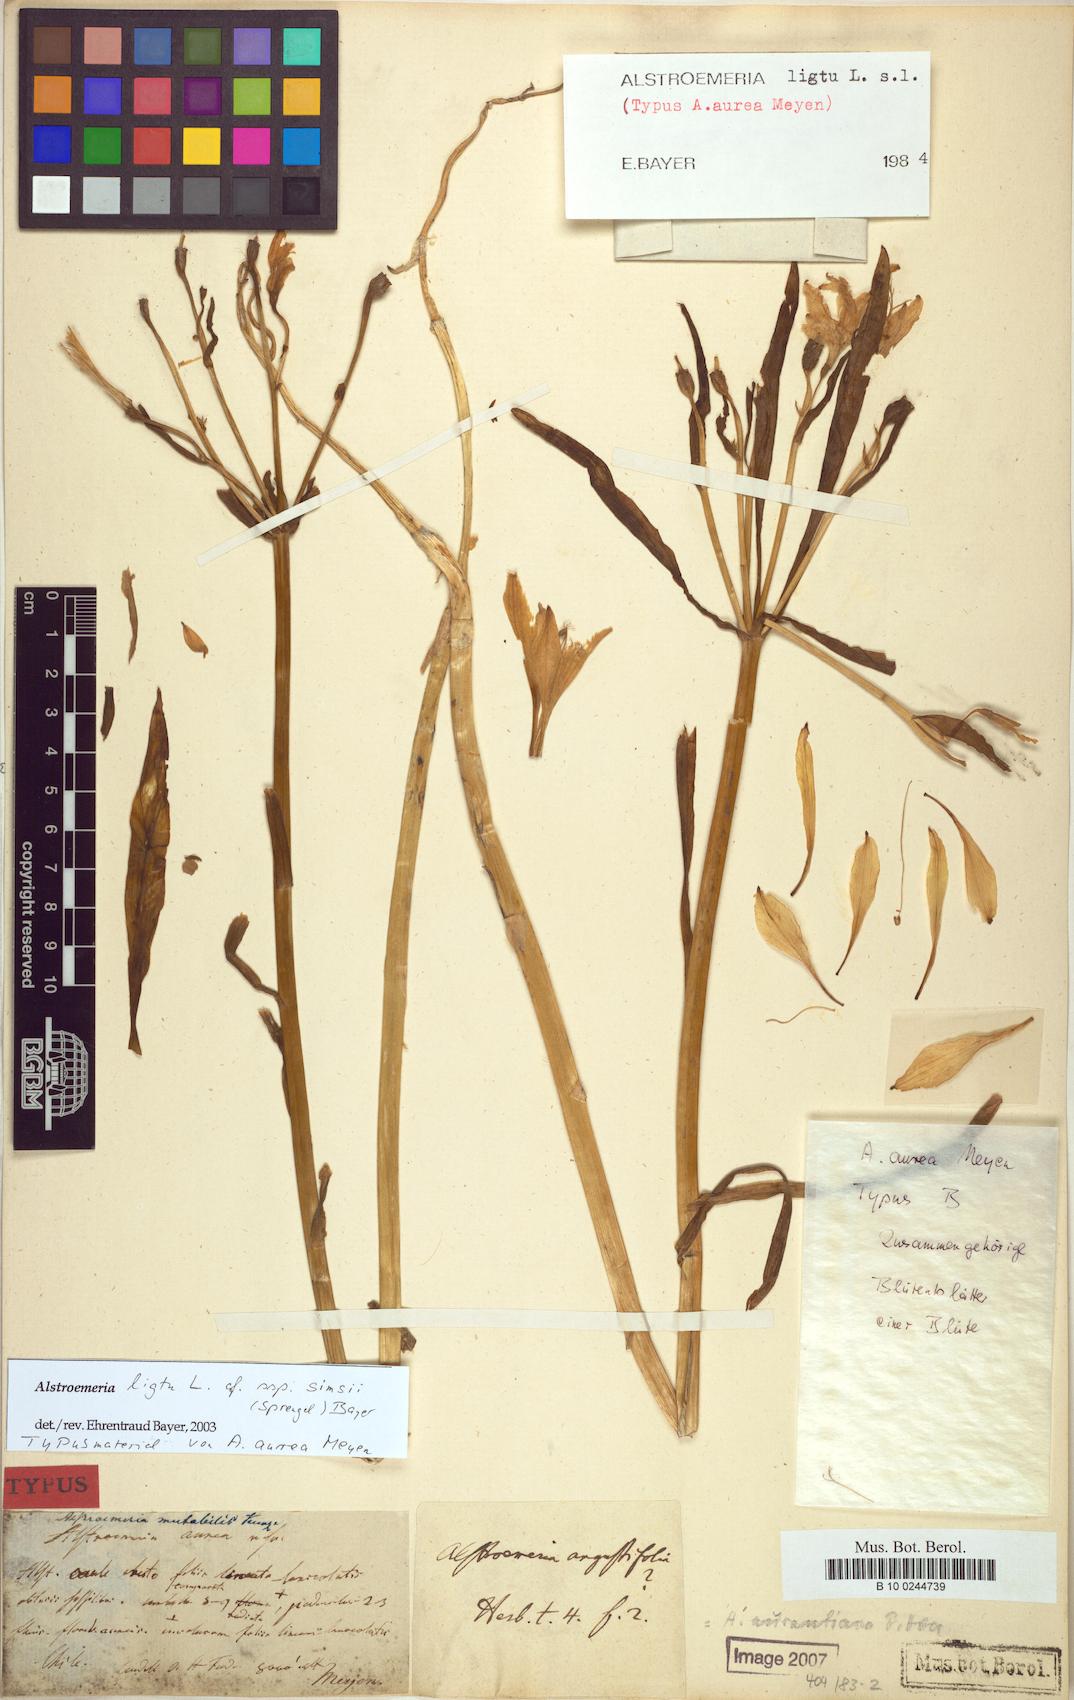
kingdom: Plantae
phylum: Tracheophyta
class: Liliopsida
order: Liliales
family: Alstroemeriaceae
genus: Alstroemeria
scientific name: Alstroemeria ligtu
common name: St. martin's-flower
